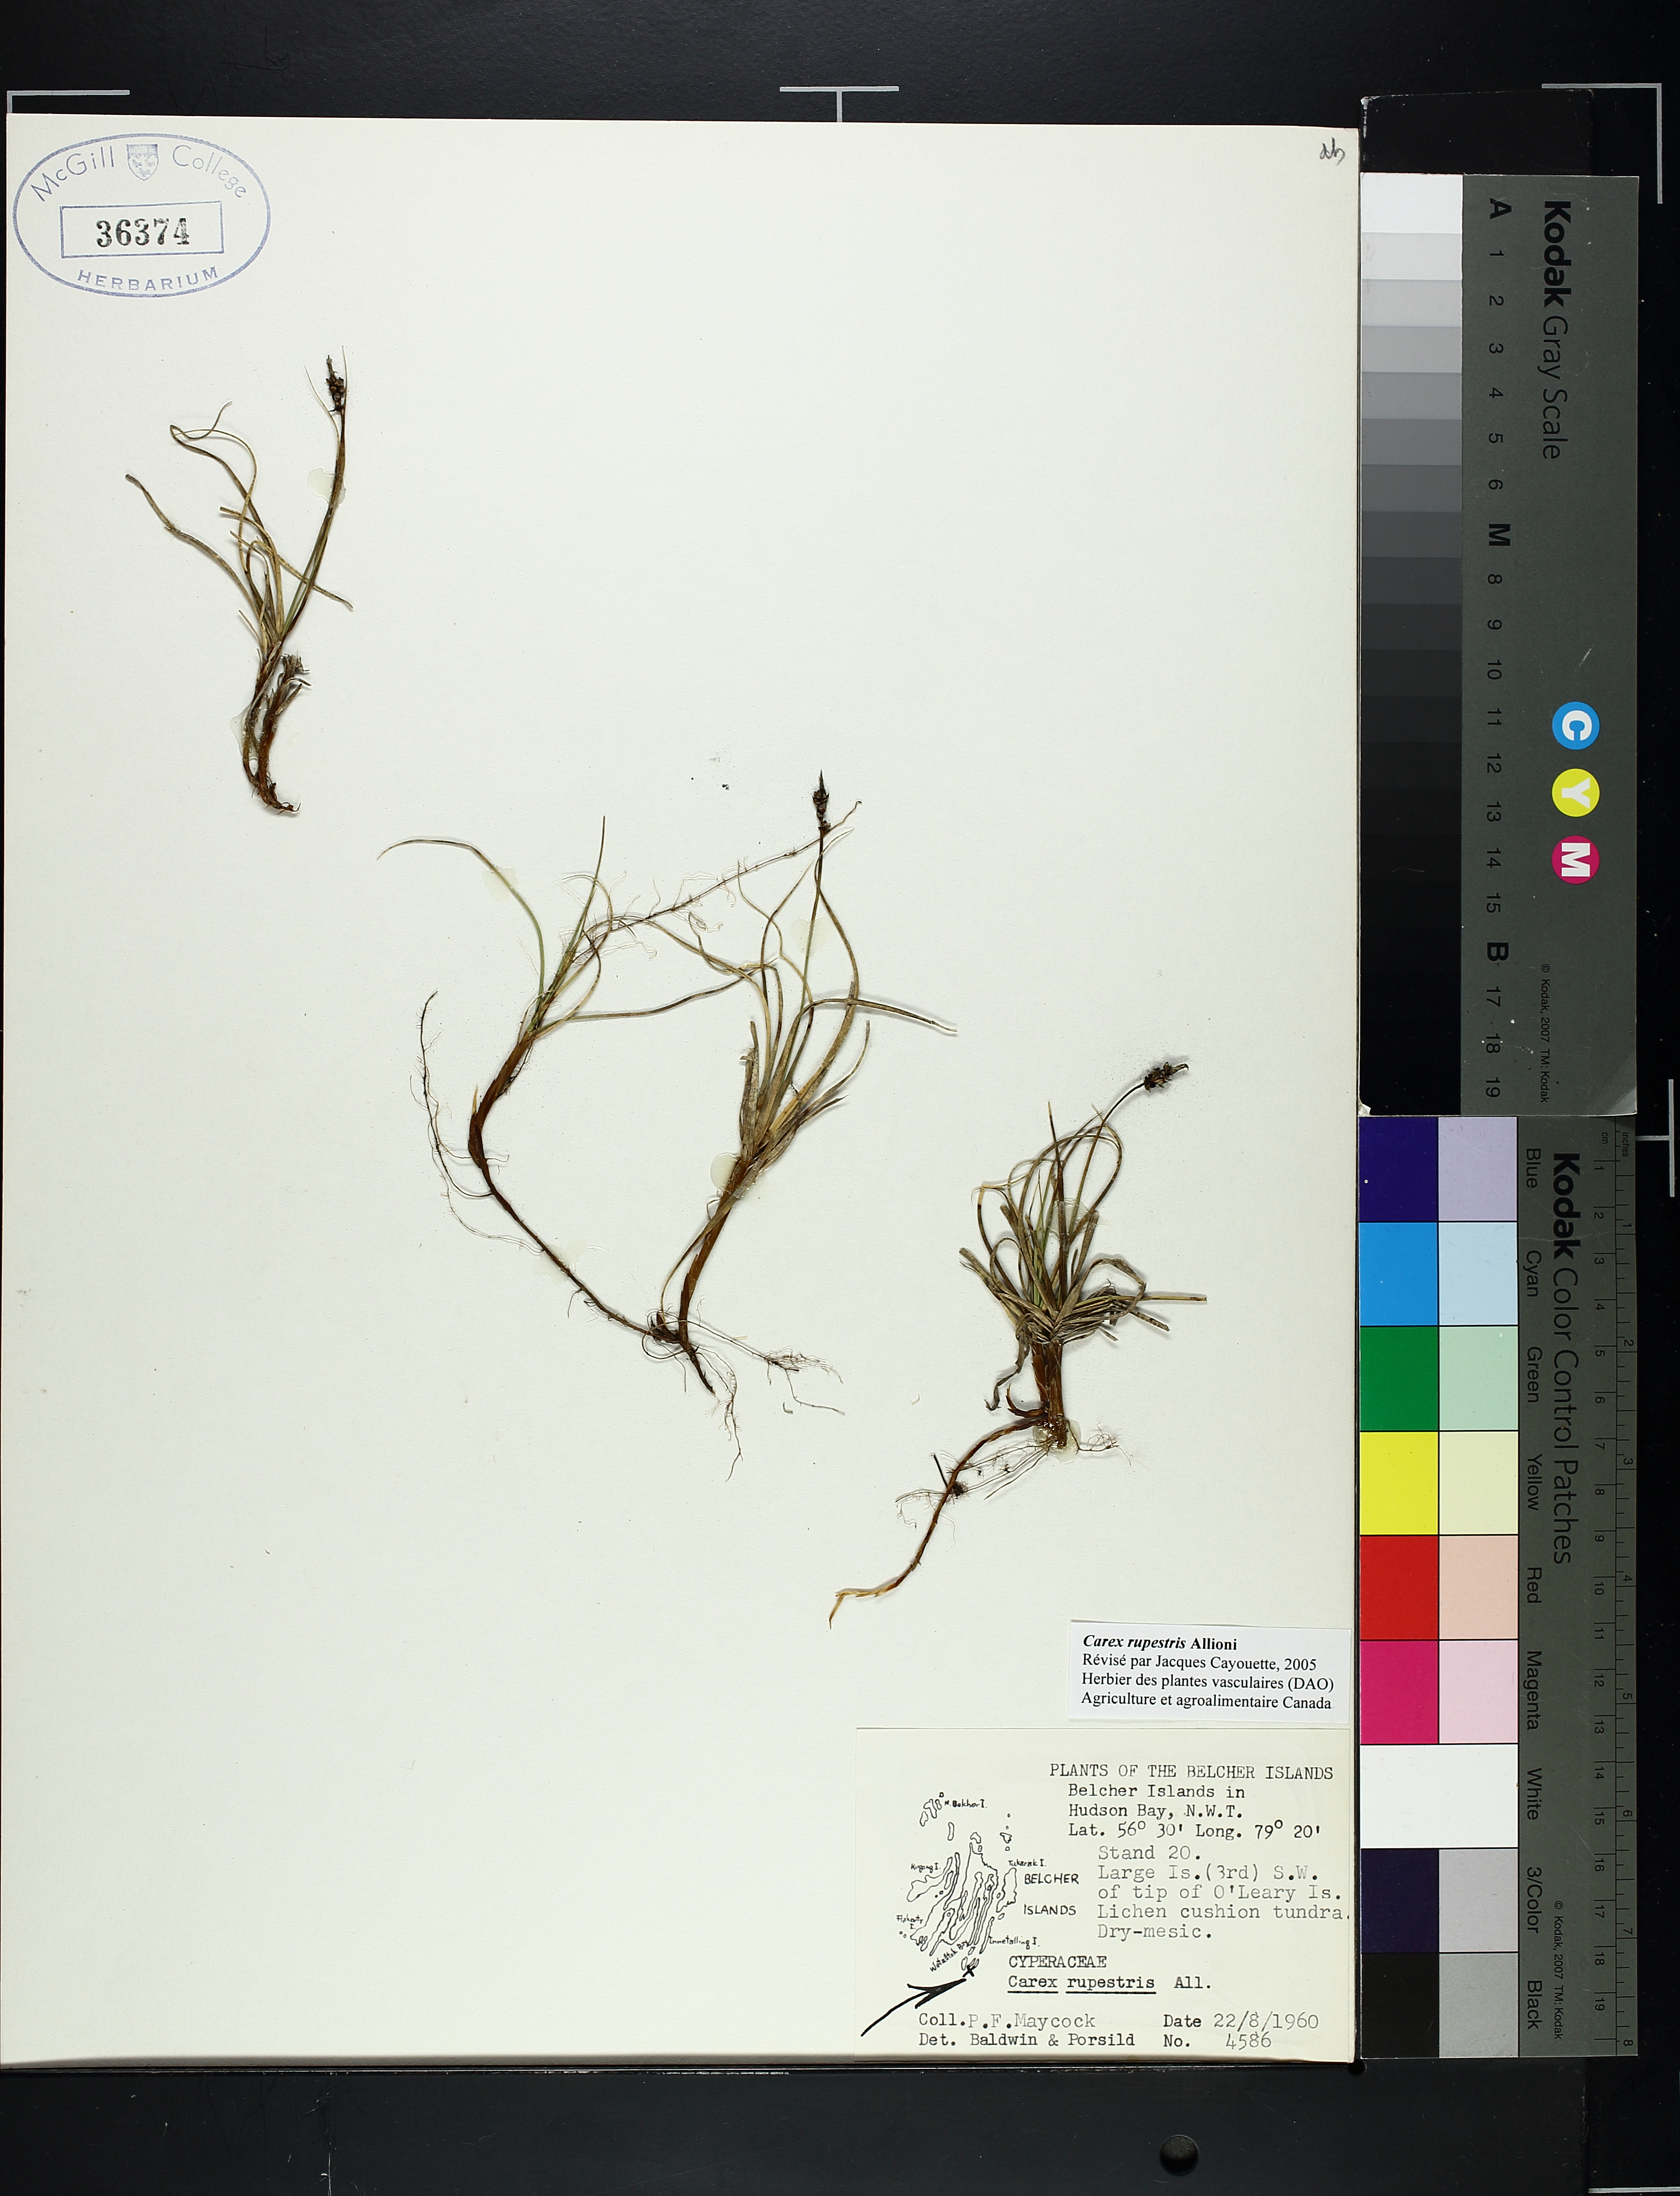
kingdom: Plantae
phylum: Tracheophyta
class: Liliopsida
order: Poales
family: Cyperaceae
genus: Carex
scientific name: Carex rupestris
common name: Rock sedge
